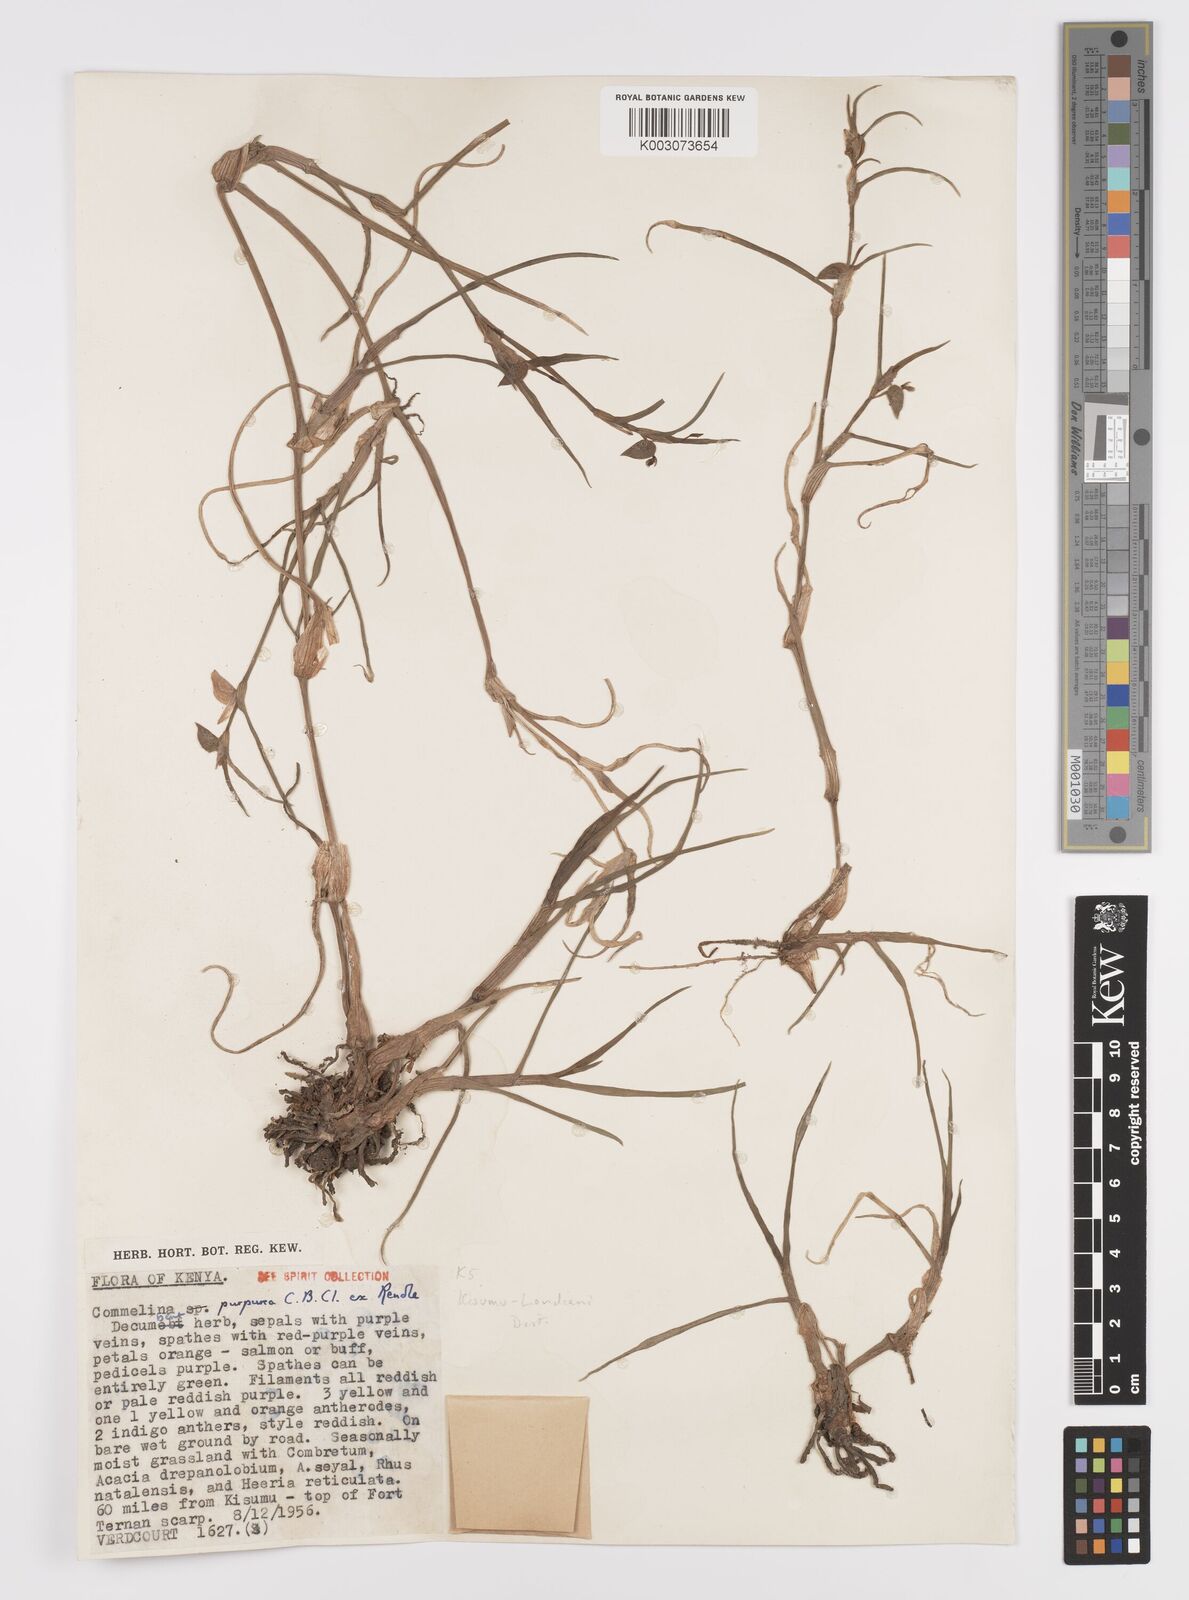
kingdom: Plantae
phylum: Tracheophyta
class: Liliopsida
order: Commelinales
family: Commelinaceae
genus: Commelina
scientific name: Commelina purpurea
